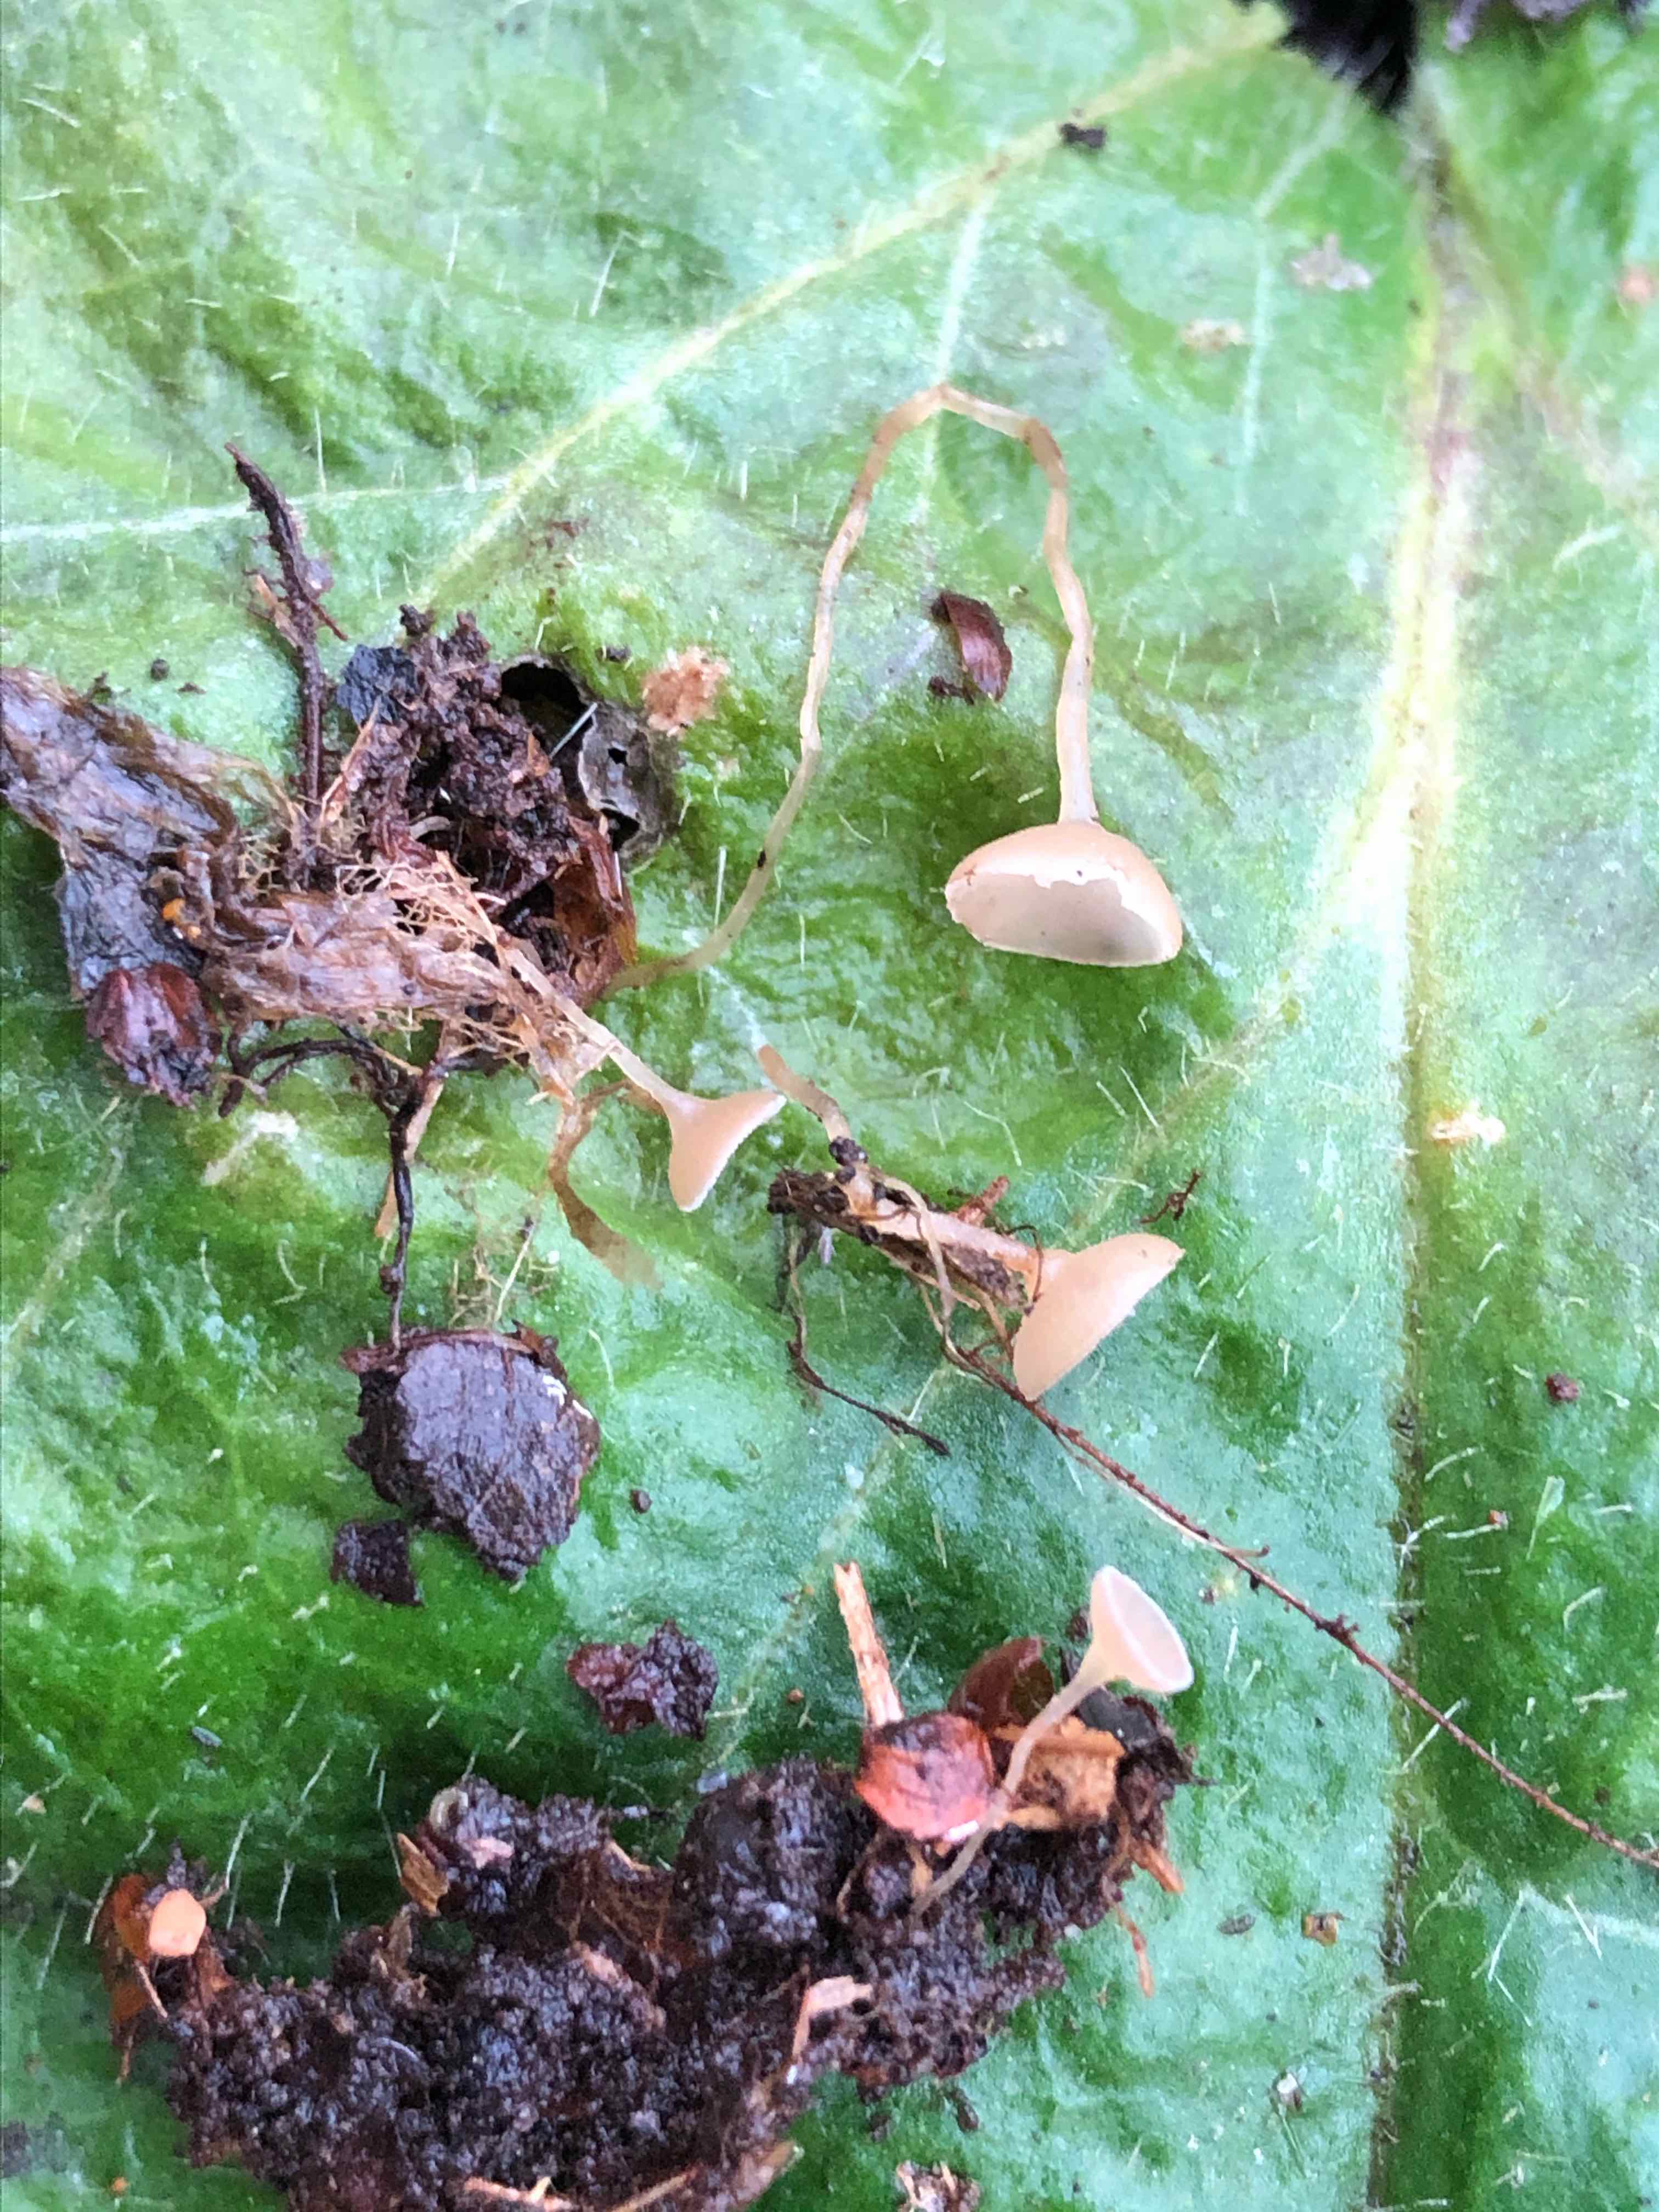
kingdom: Fungi
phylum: Ascomycota
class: Leotiomycetes
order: Helotiales
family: Sclerotiniaceae
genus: Ciboria
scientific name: Ciboria amentacea
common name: ellerakle-knoldskive
